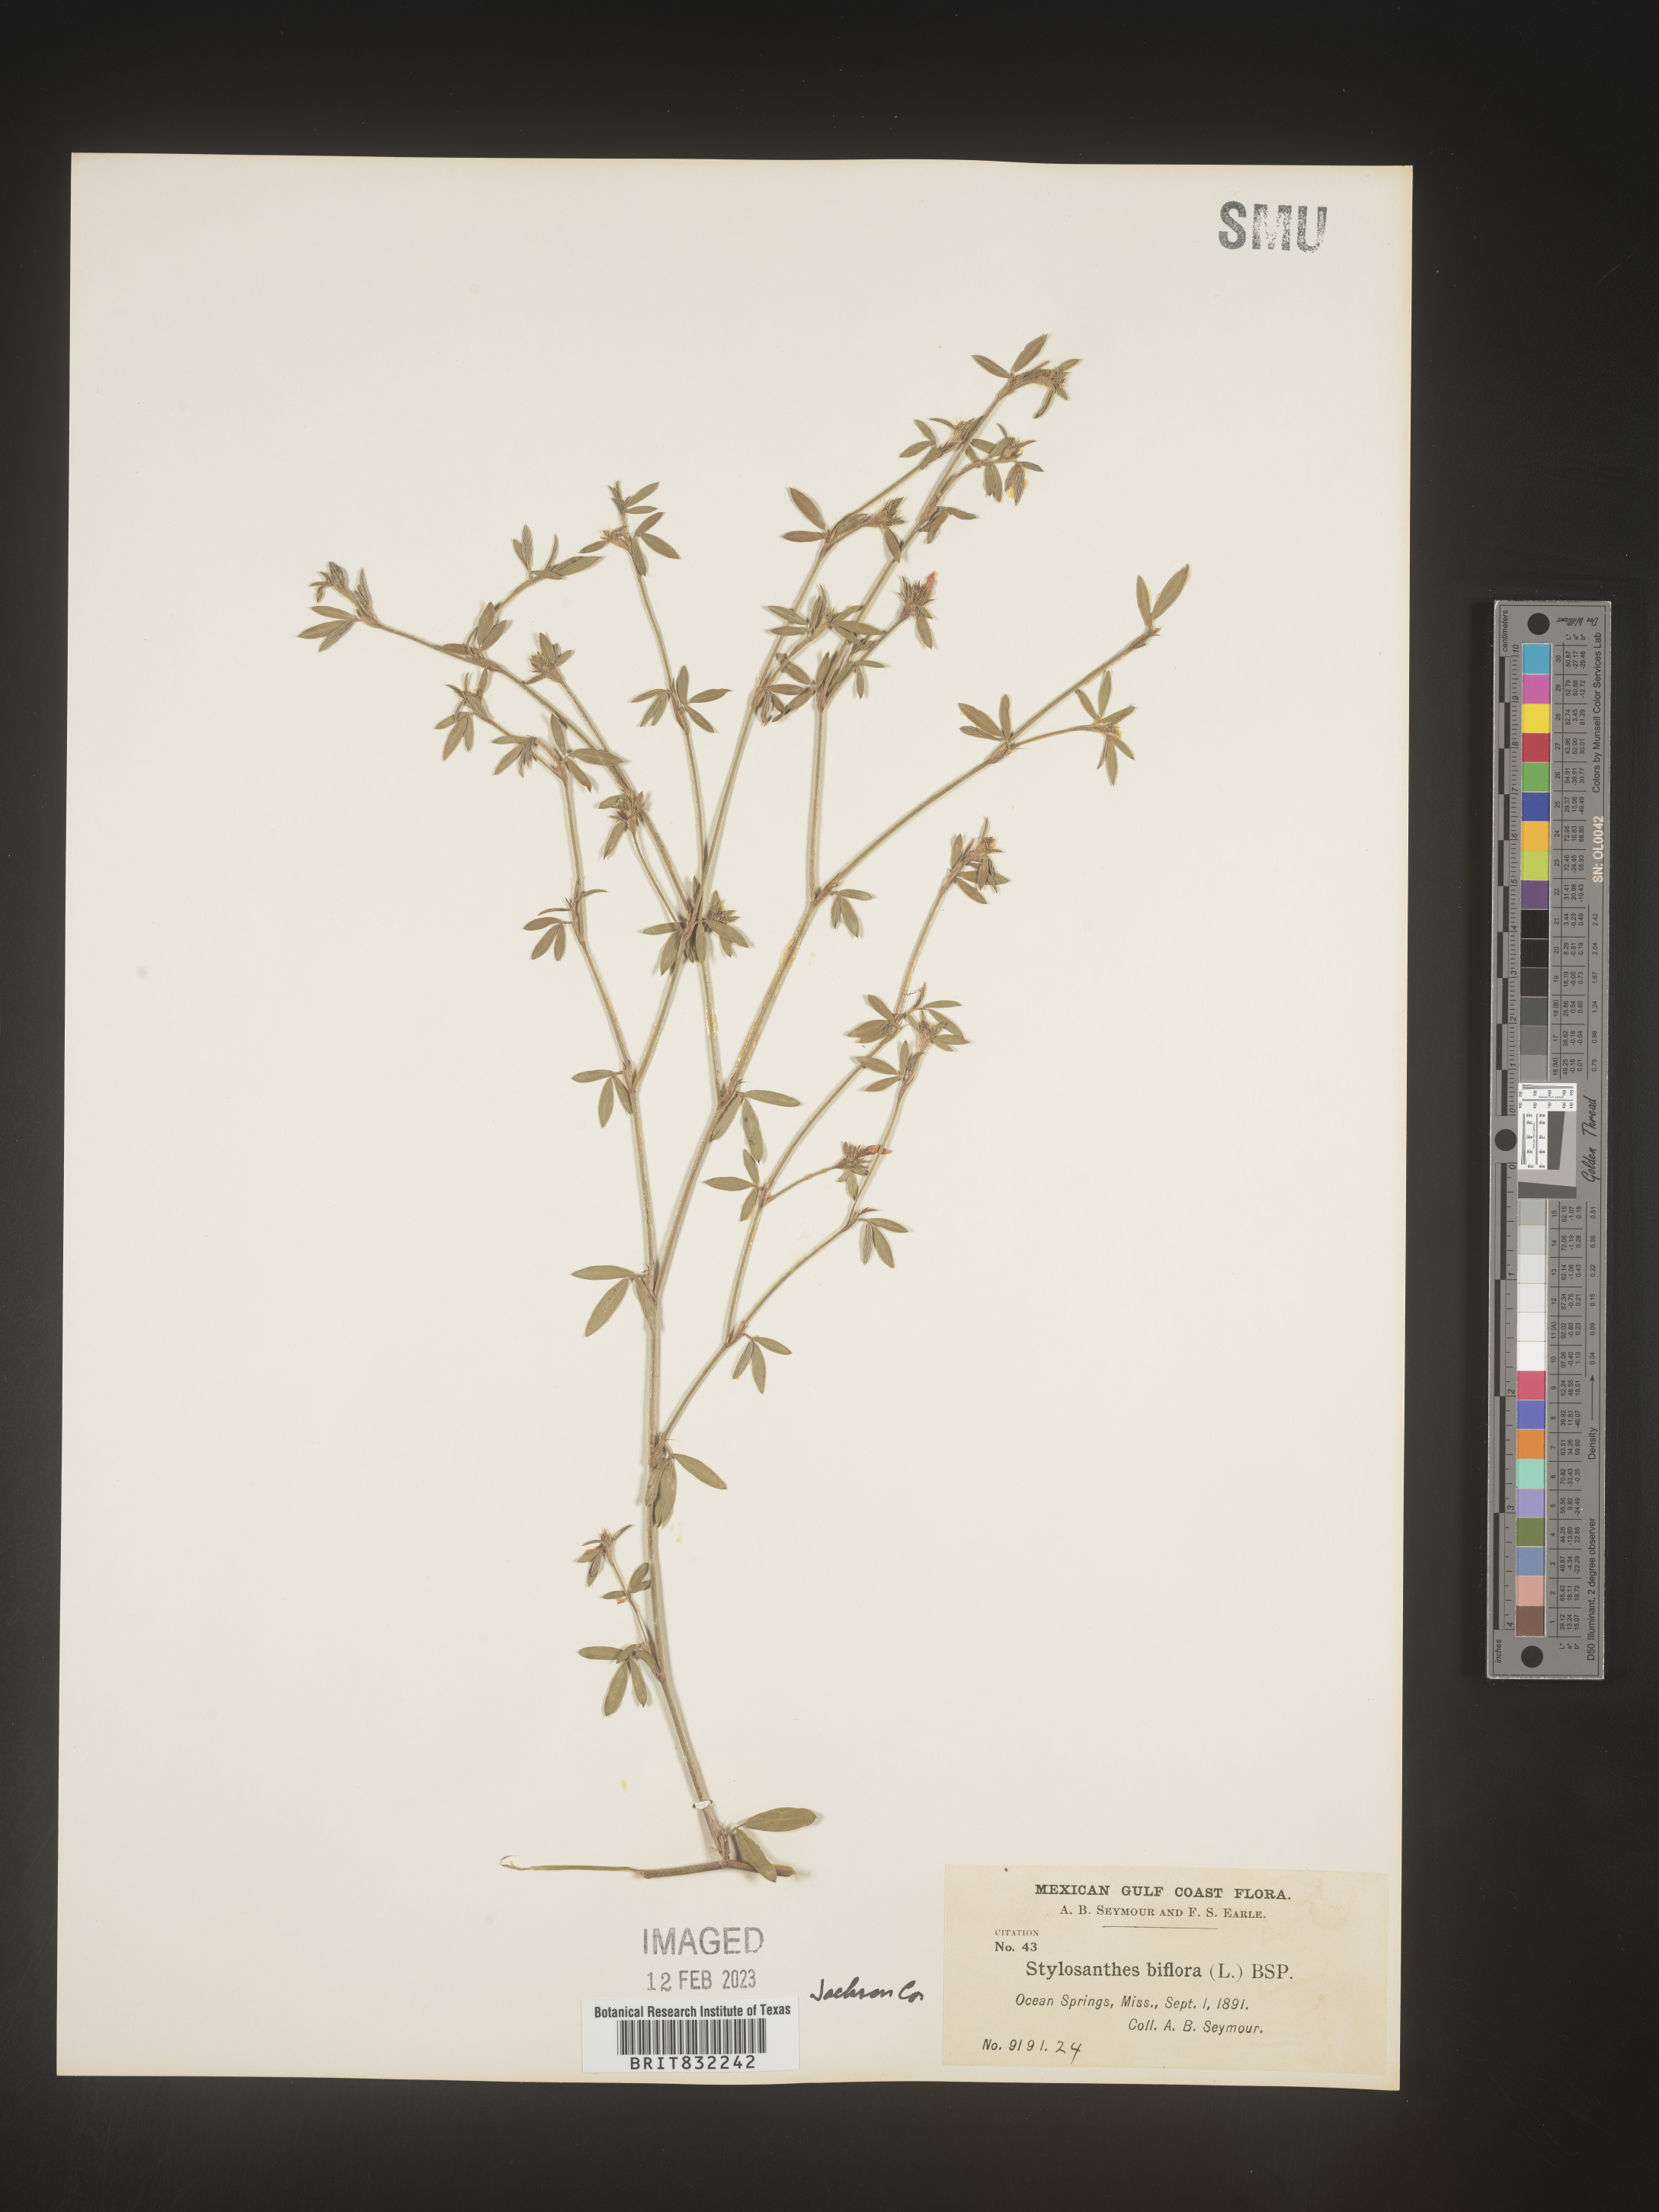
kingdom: Plantae
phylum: Tracheophyta
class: Magnoliopsida
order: Fabales
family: Fabaceae
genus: Stylosanthes
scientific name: Stylosanthes biflora
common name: Two-flower pencil-flower
